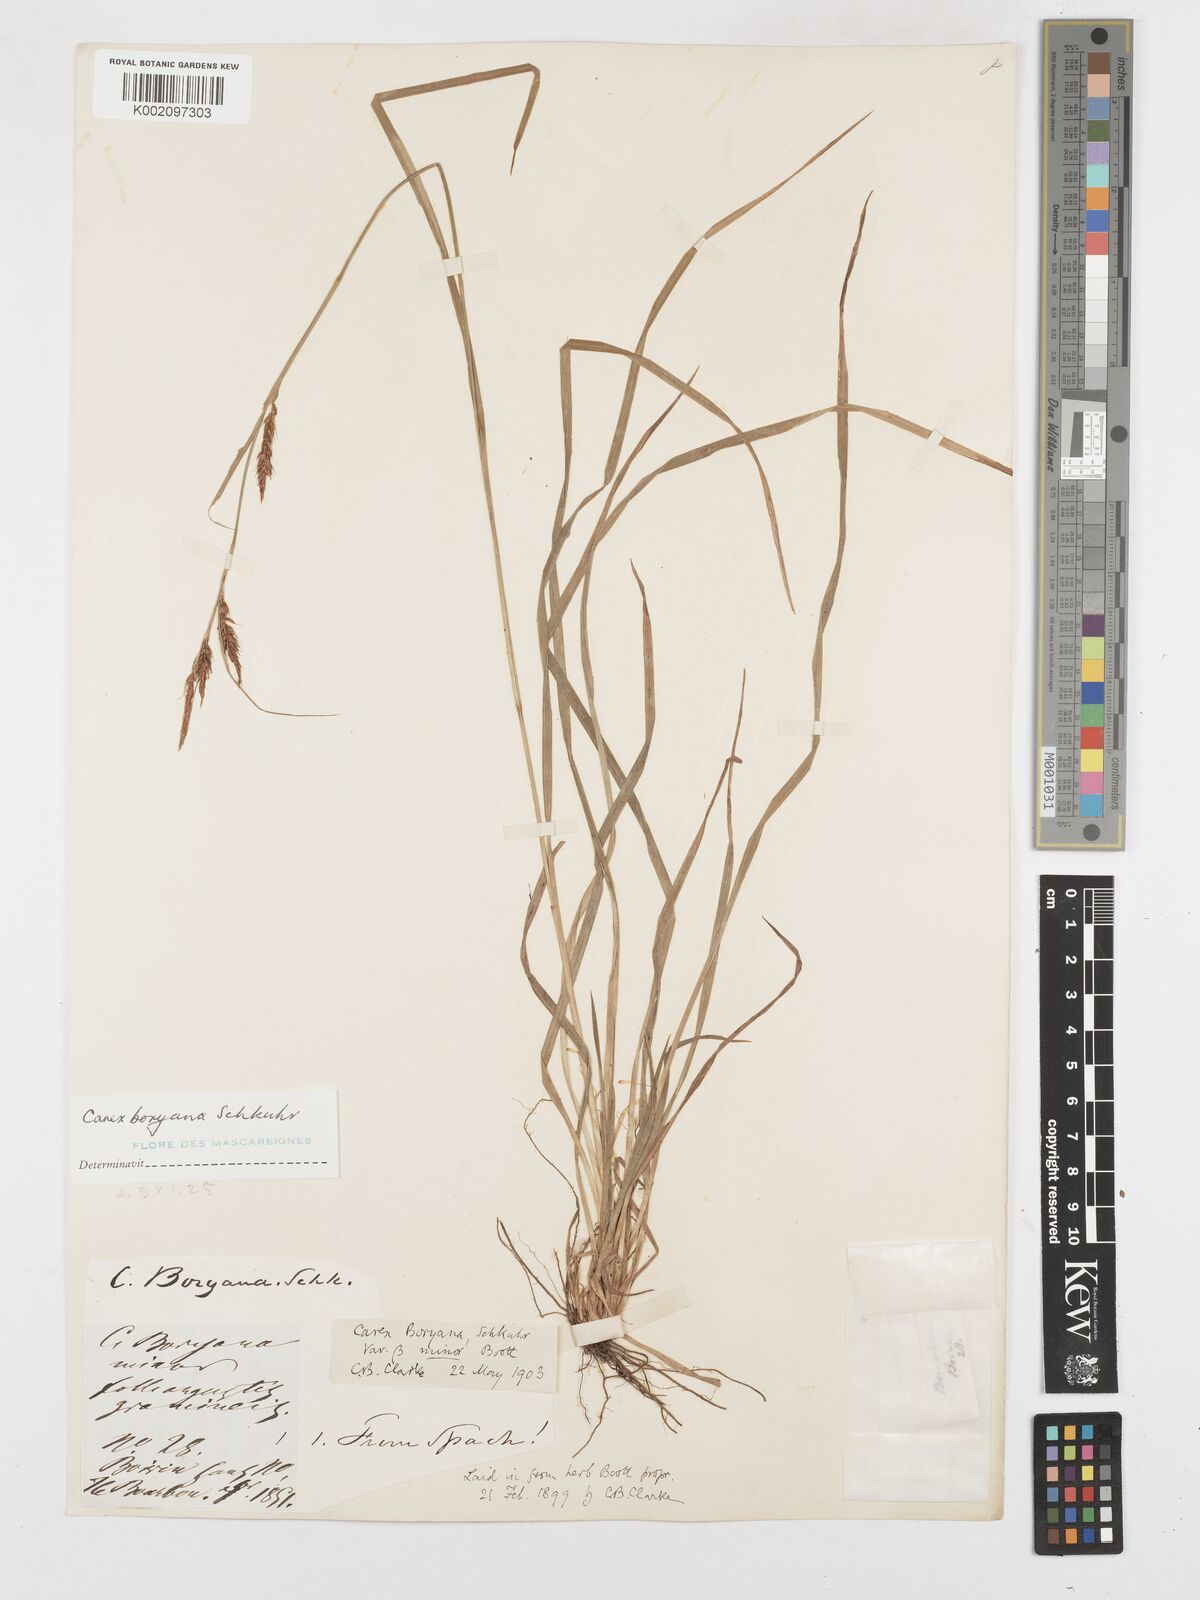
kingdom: Plantae
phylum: Tracheophyta
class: Liliopsida
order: Poales
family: Cyperaceae
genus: Carex
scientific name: Carex boryana
